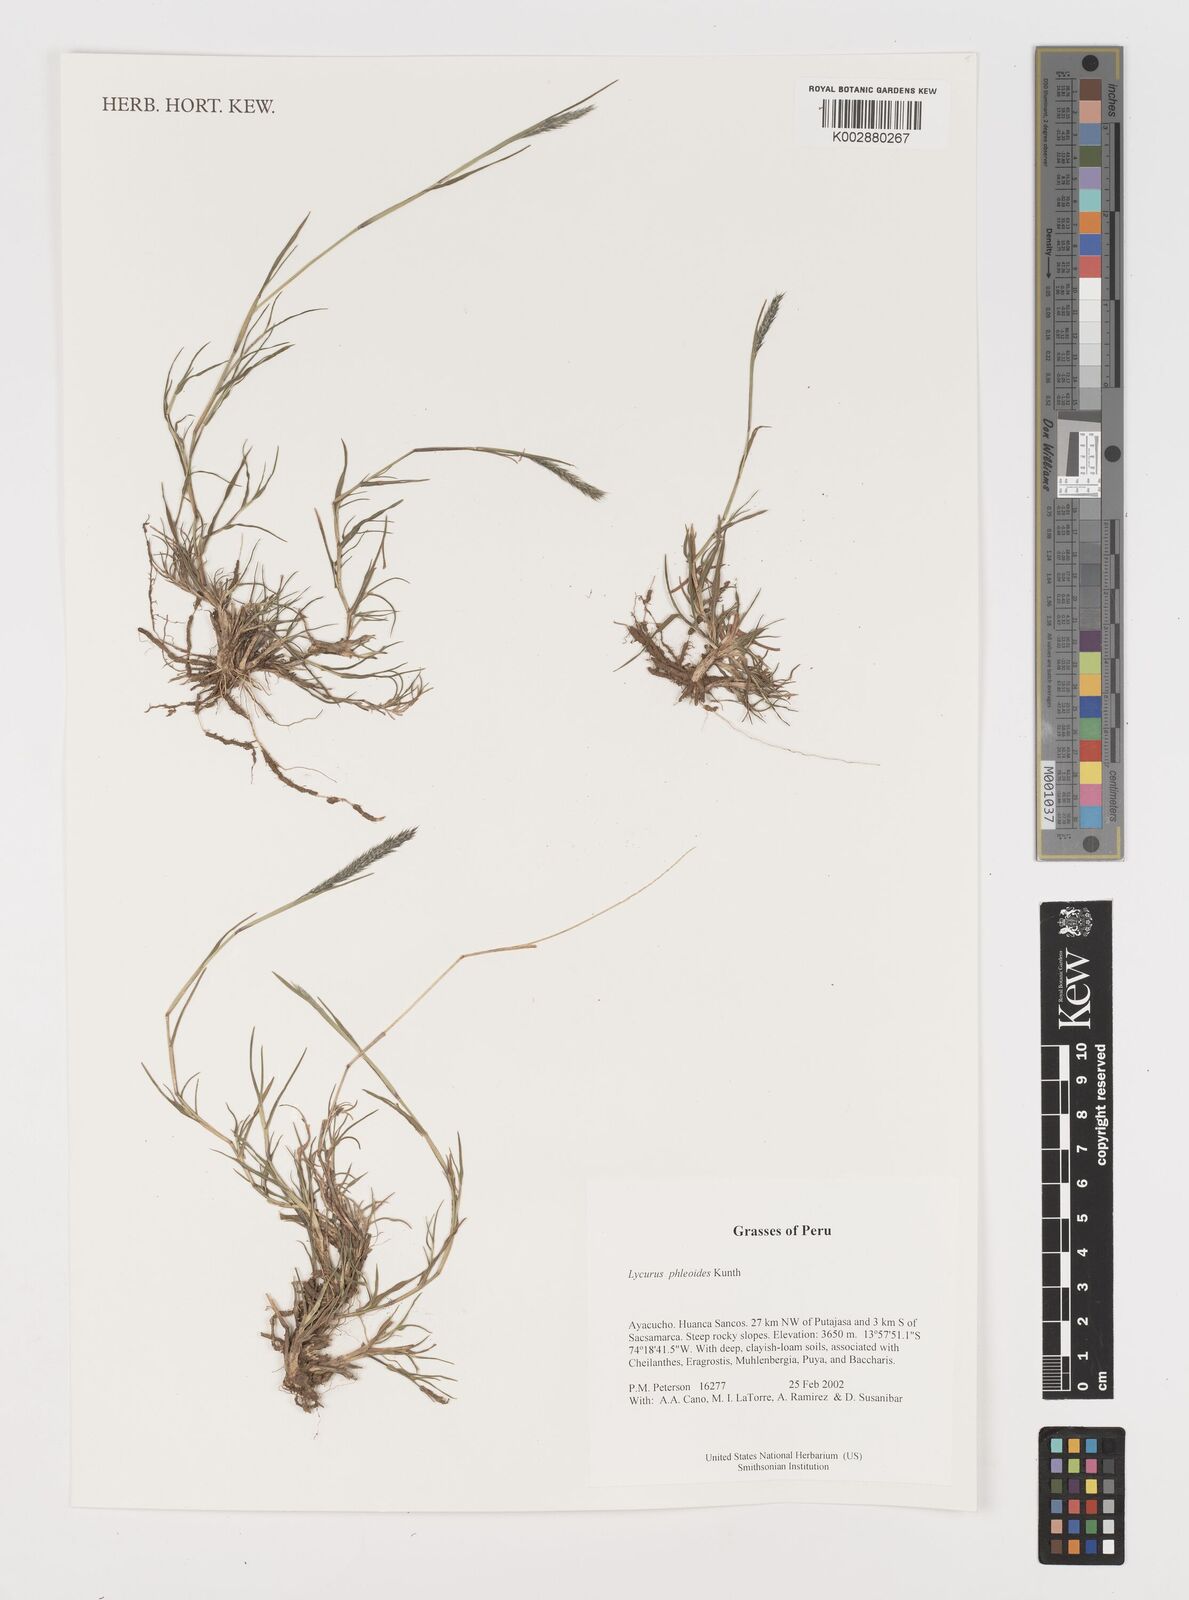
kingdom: Plantae
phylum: Tracheophyta
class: Liliopsida
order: Poales
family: Poaceae
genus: Muhlenbergia
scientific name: Muhlenbergia phalaroides
